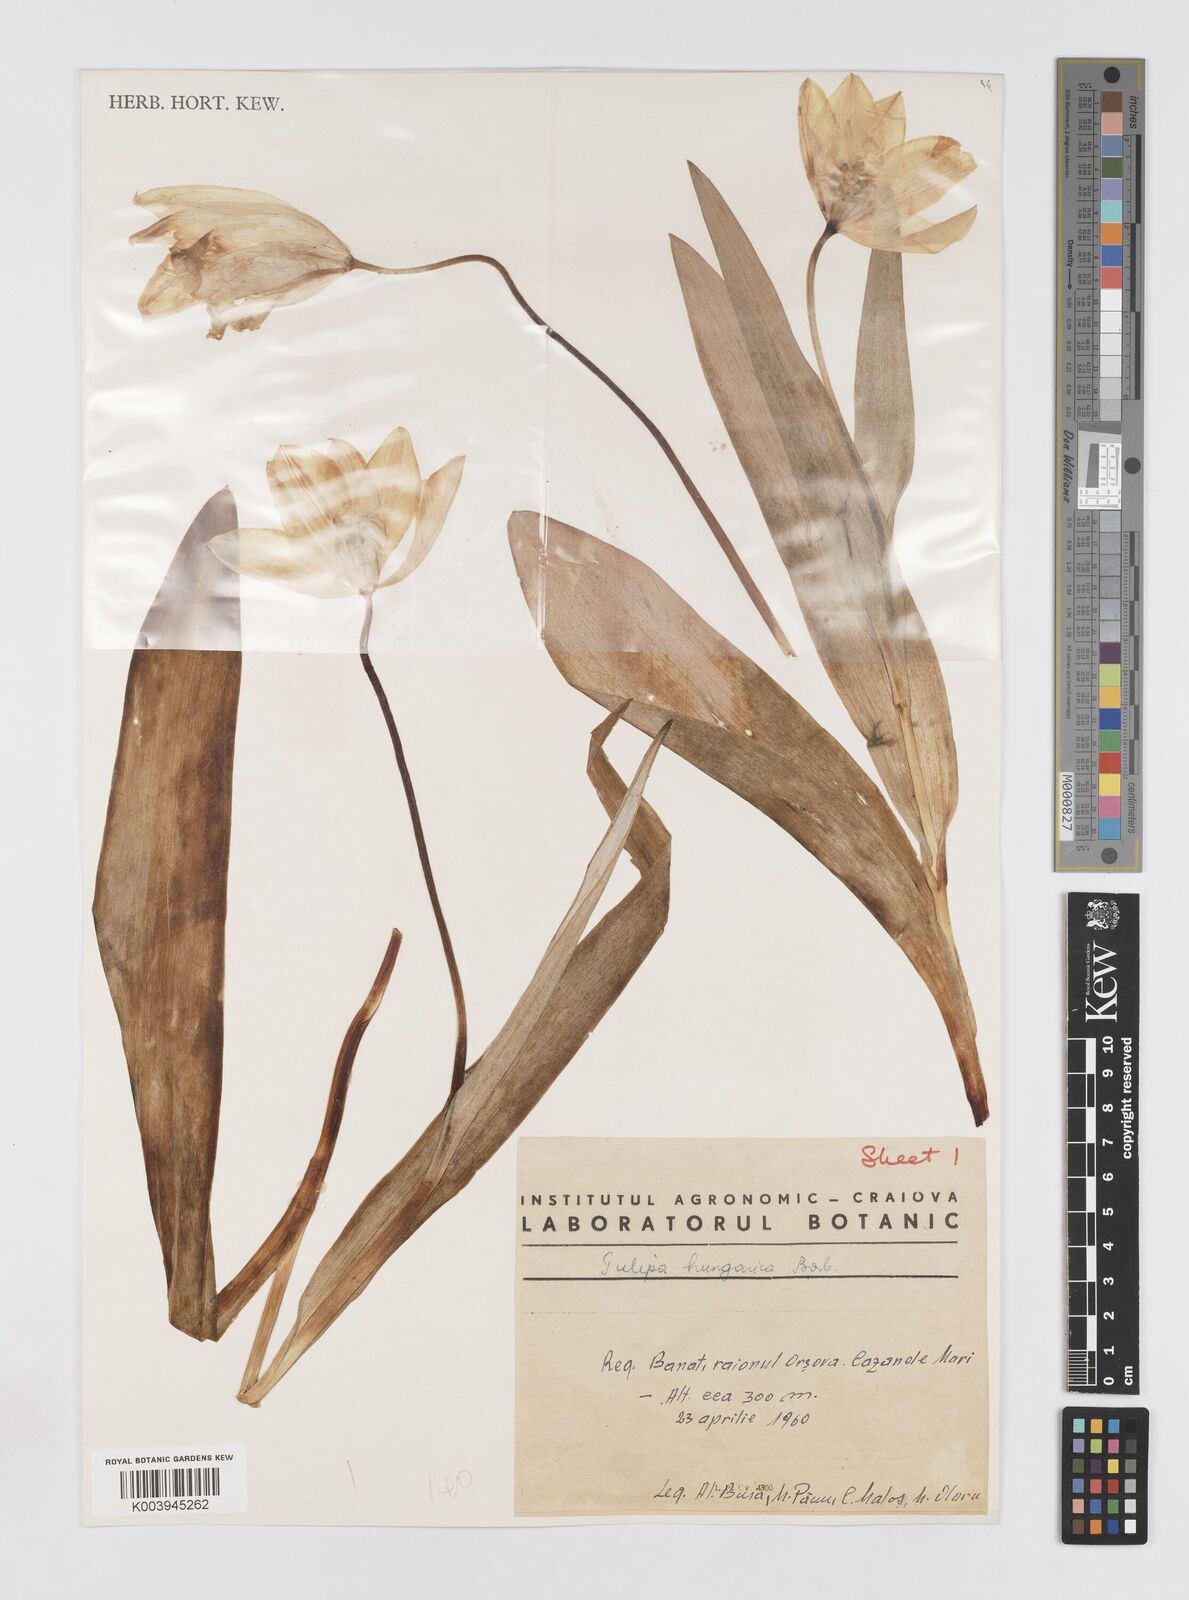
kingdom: Plantae
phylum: Tracheophyta
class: Liliopsida
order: Liliales
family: Liliaceae
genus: Tulipa
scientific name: Tulipa hungarica
